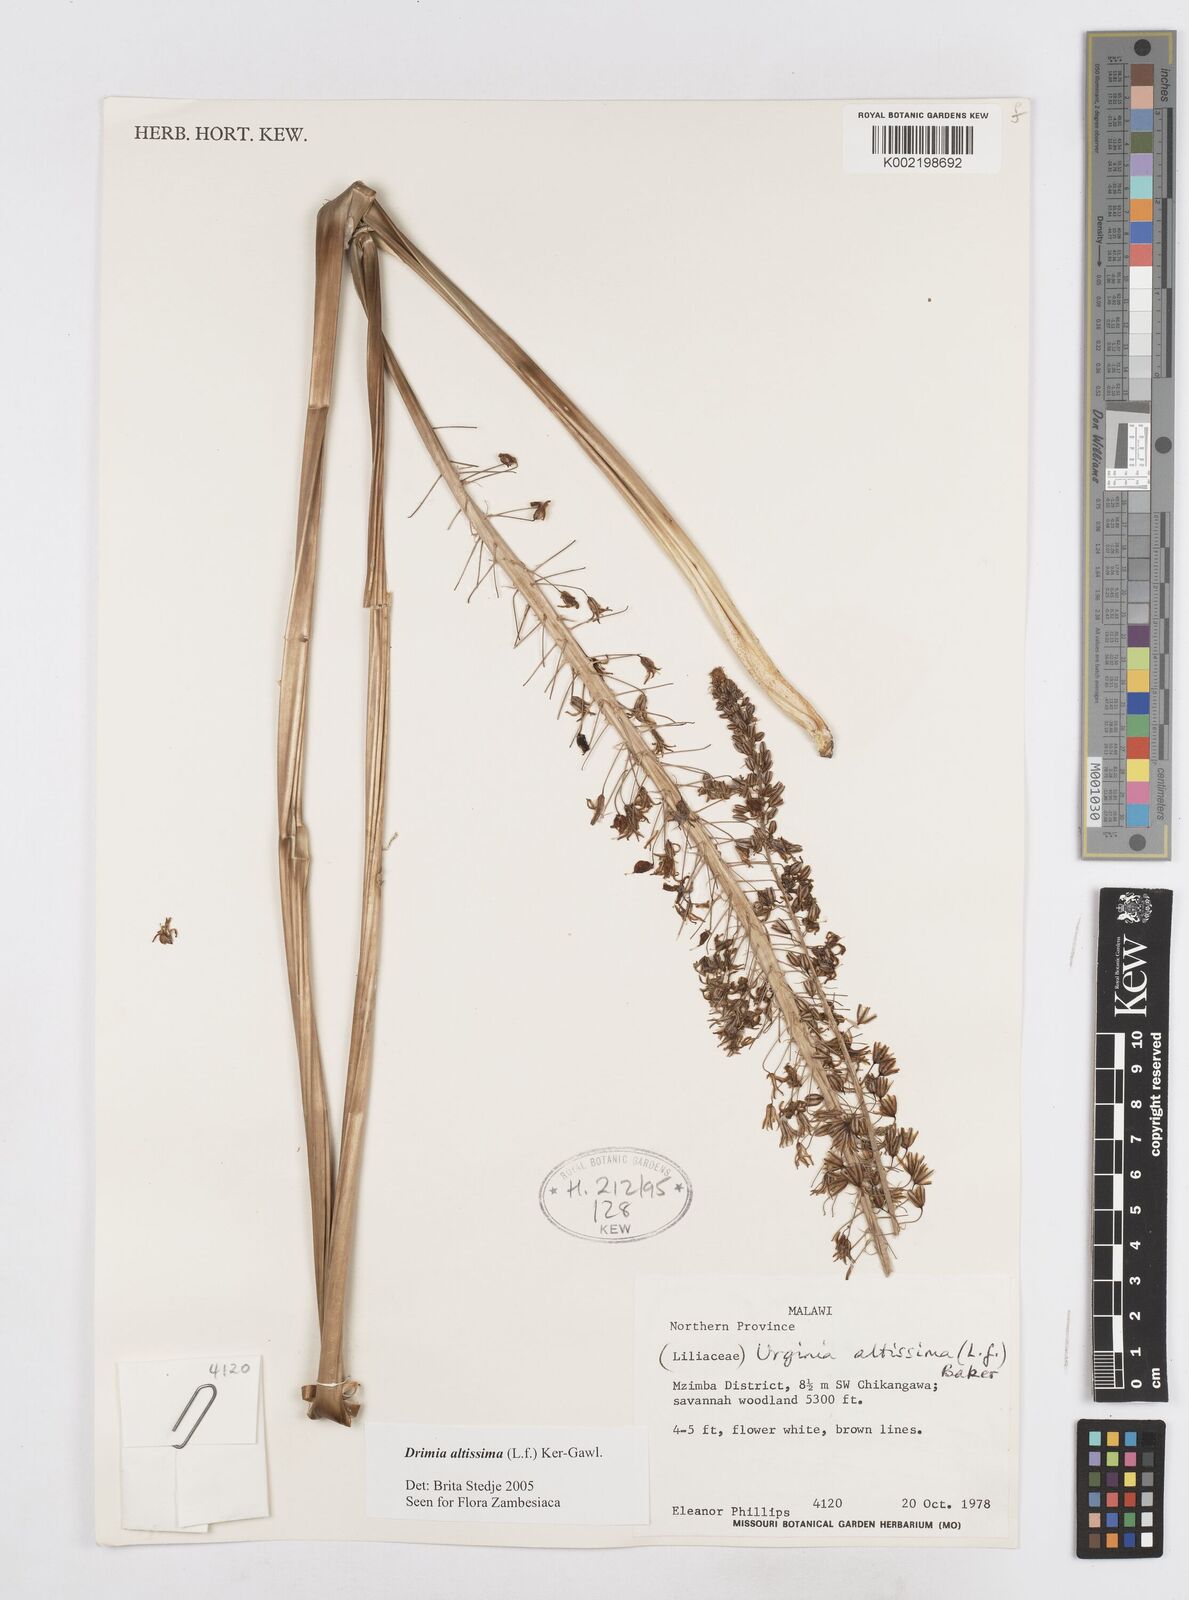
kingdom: Plantae
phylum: Tracheophyta
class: Liliopsida
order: Asparagales
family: Asparagaceae
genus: Drimia
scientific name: Drimia
